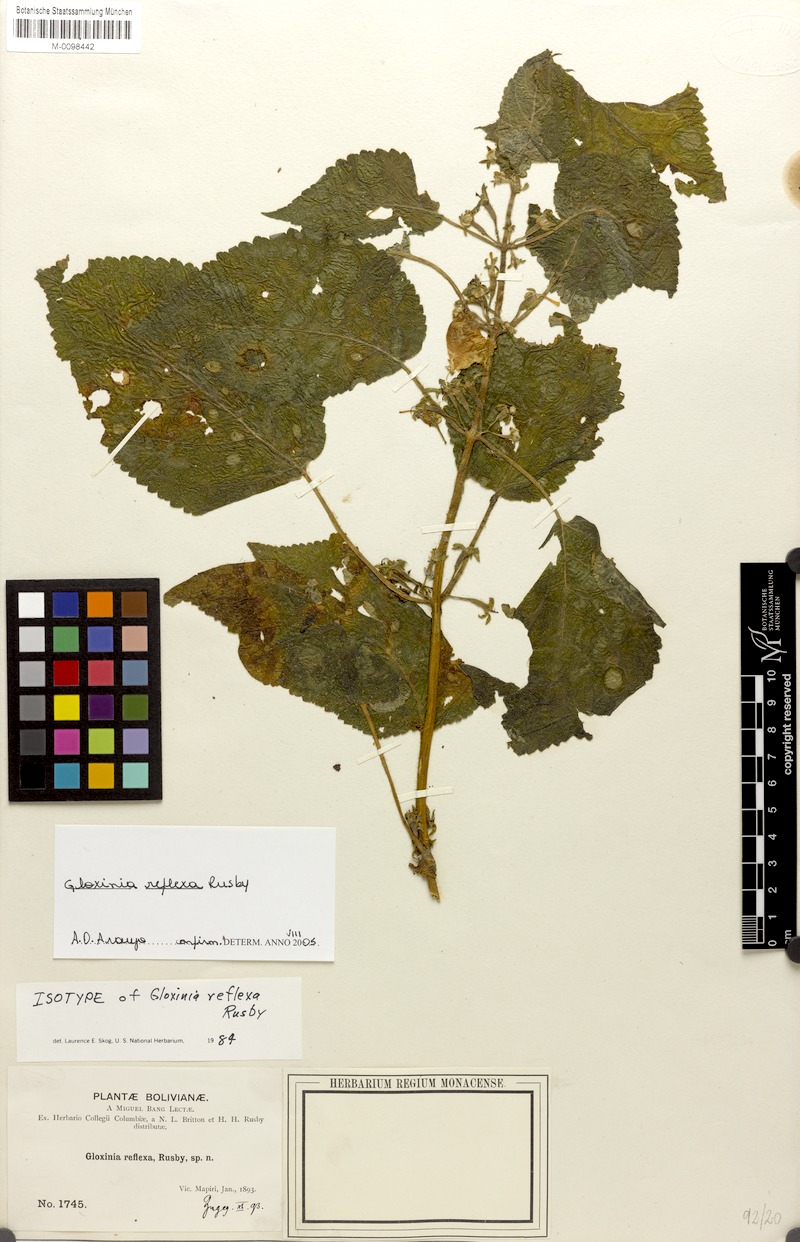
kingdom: Plantae
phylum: Tracheophyta
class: Magnoliopsida
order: Lamiales
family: Gesneriaceae
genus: Monopyle
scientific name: Monopyle reflexa
